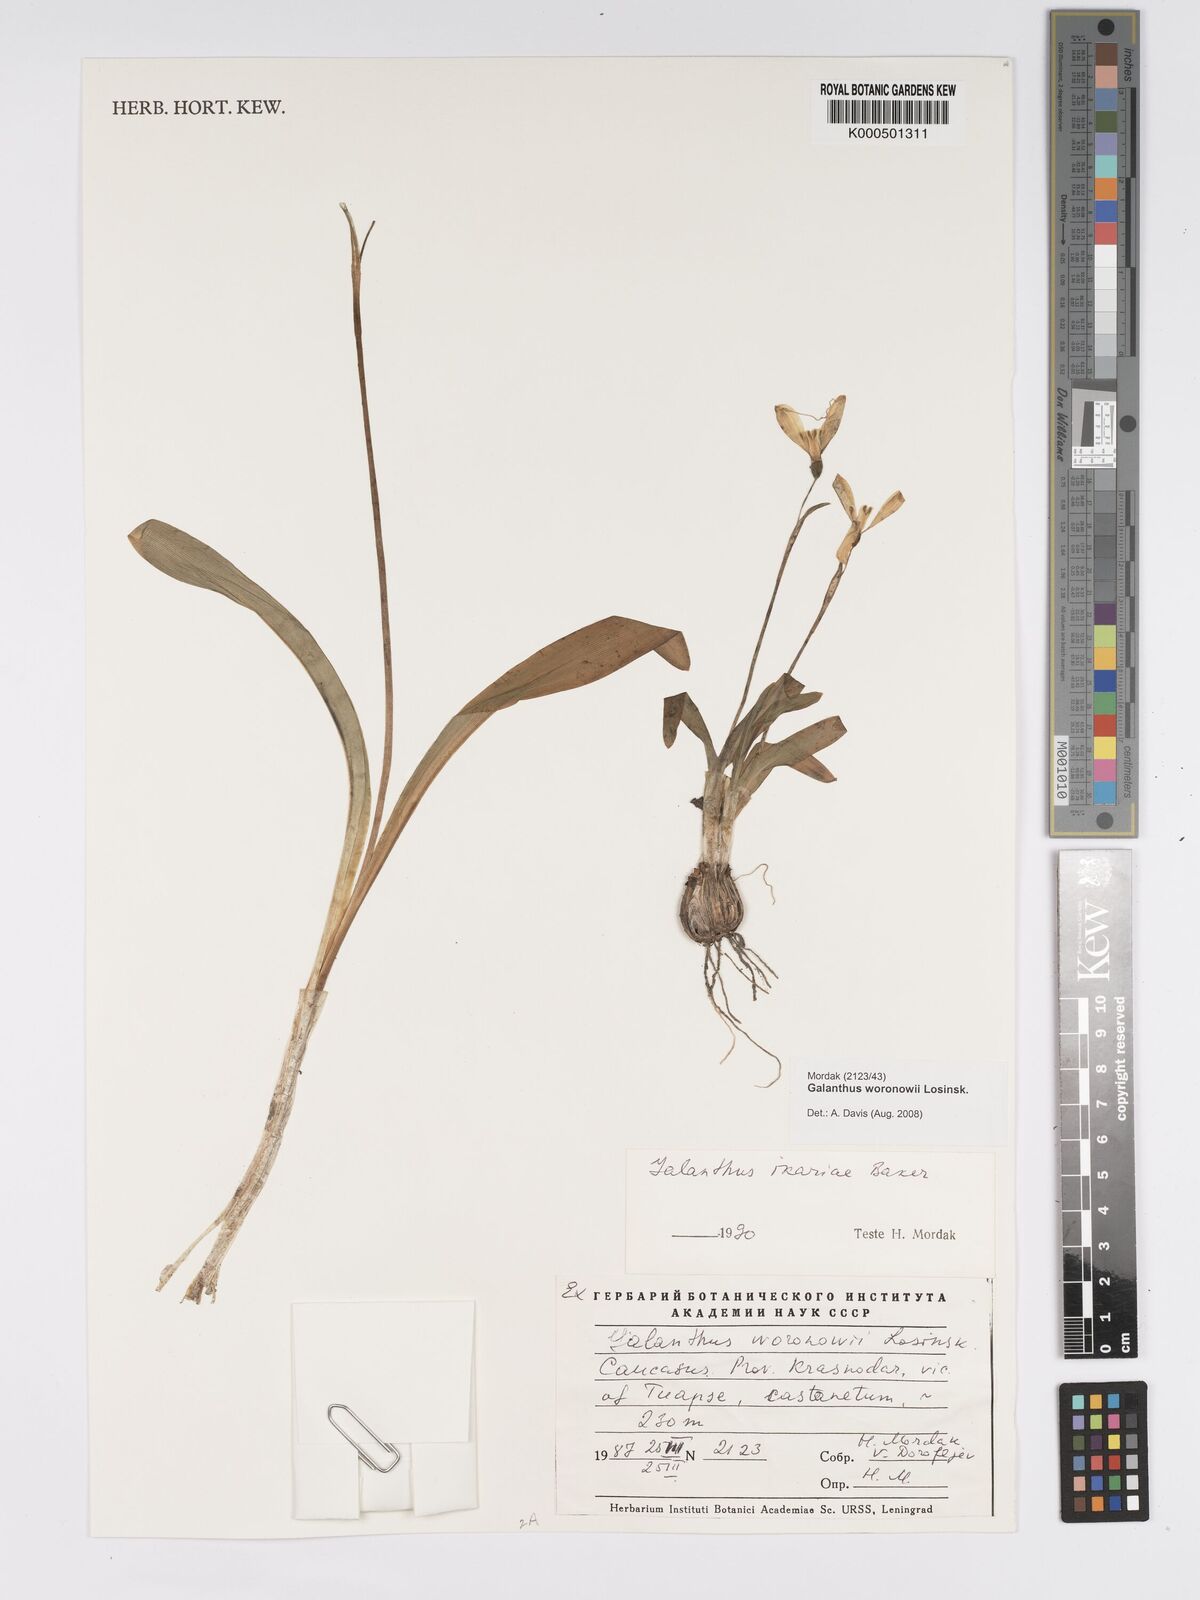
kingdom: Plantae
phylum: Tracheophyta
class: Liliopsida
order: Asparagales
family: Amaryllidaceae
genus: Galanthus
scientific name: Galanthus woronowii
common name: Green snowdrop
